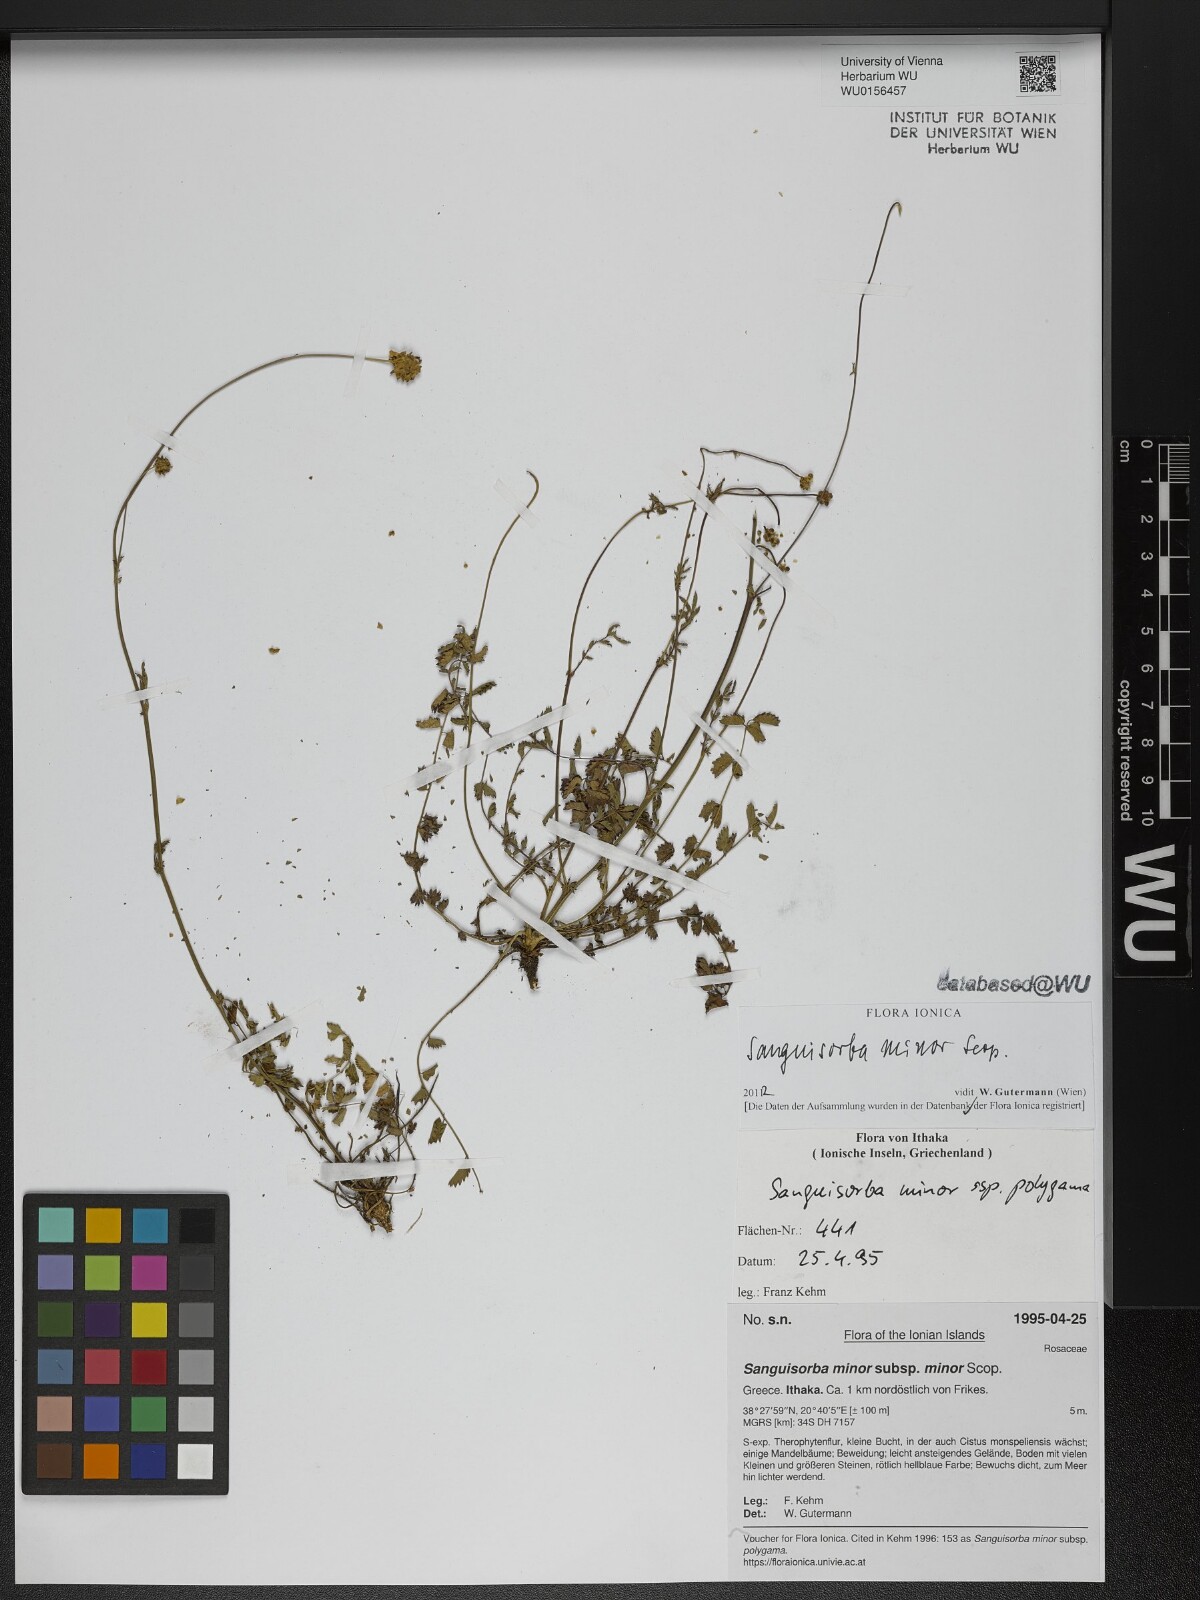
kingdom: Plantae
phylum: Tracheophyta
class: Magnoliopsida
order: Rosales
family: Rosaceae
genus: Poterium
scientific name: Poterium sanguisorba
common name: Salad burnet
